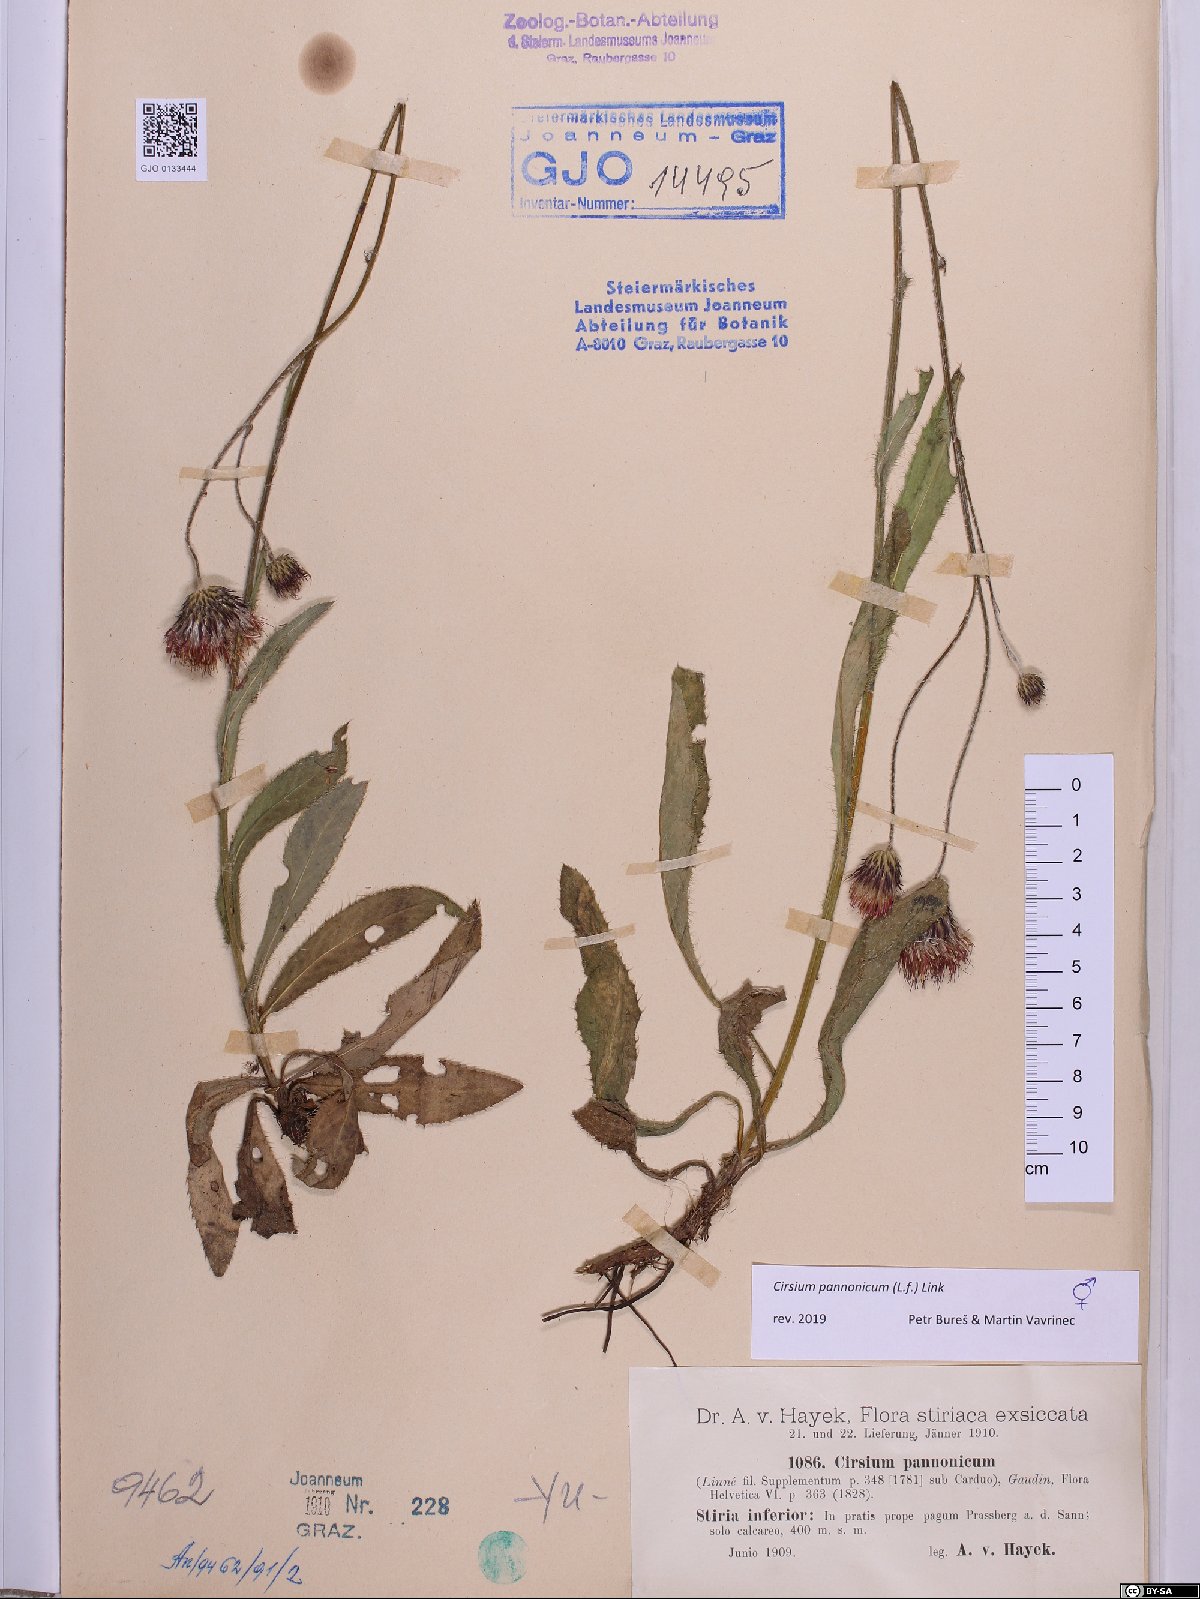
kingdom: Plantae
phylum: Tracheophyta
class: Magnoliopsida
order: Asterales
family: Asteraceae
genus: Cirsium
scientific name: Cirsium pannonicum
